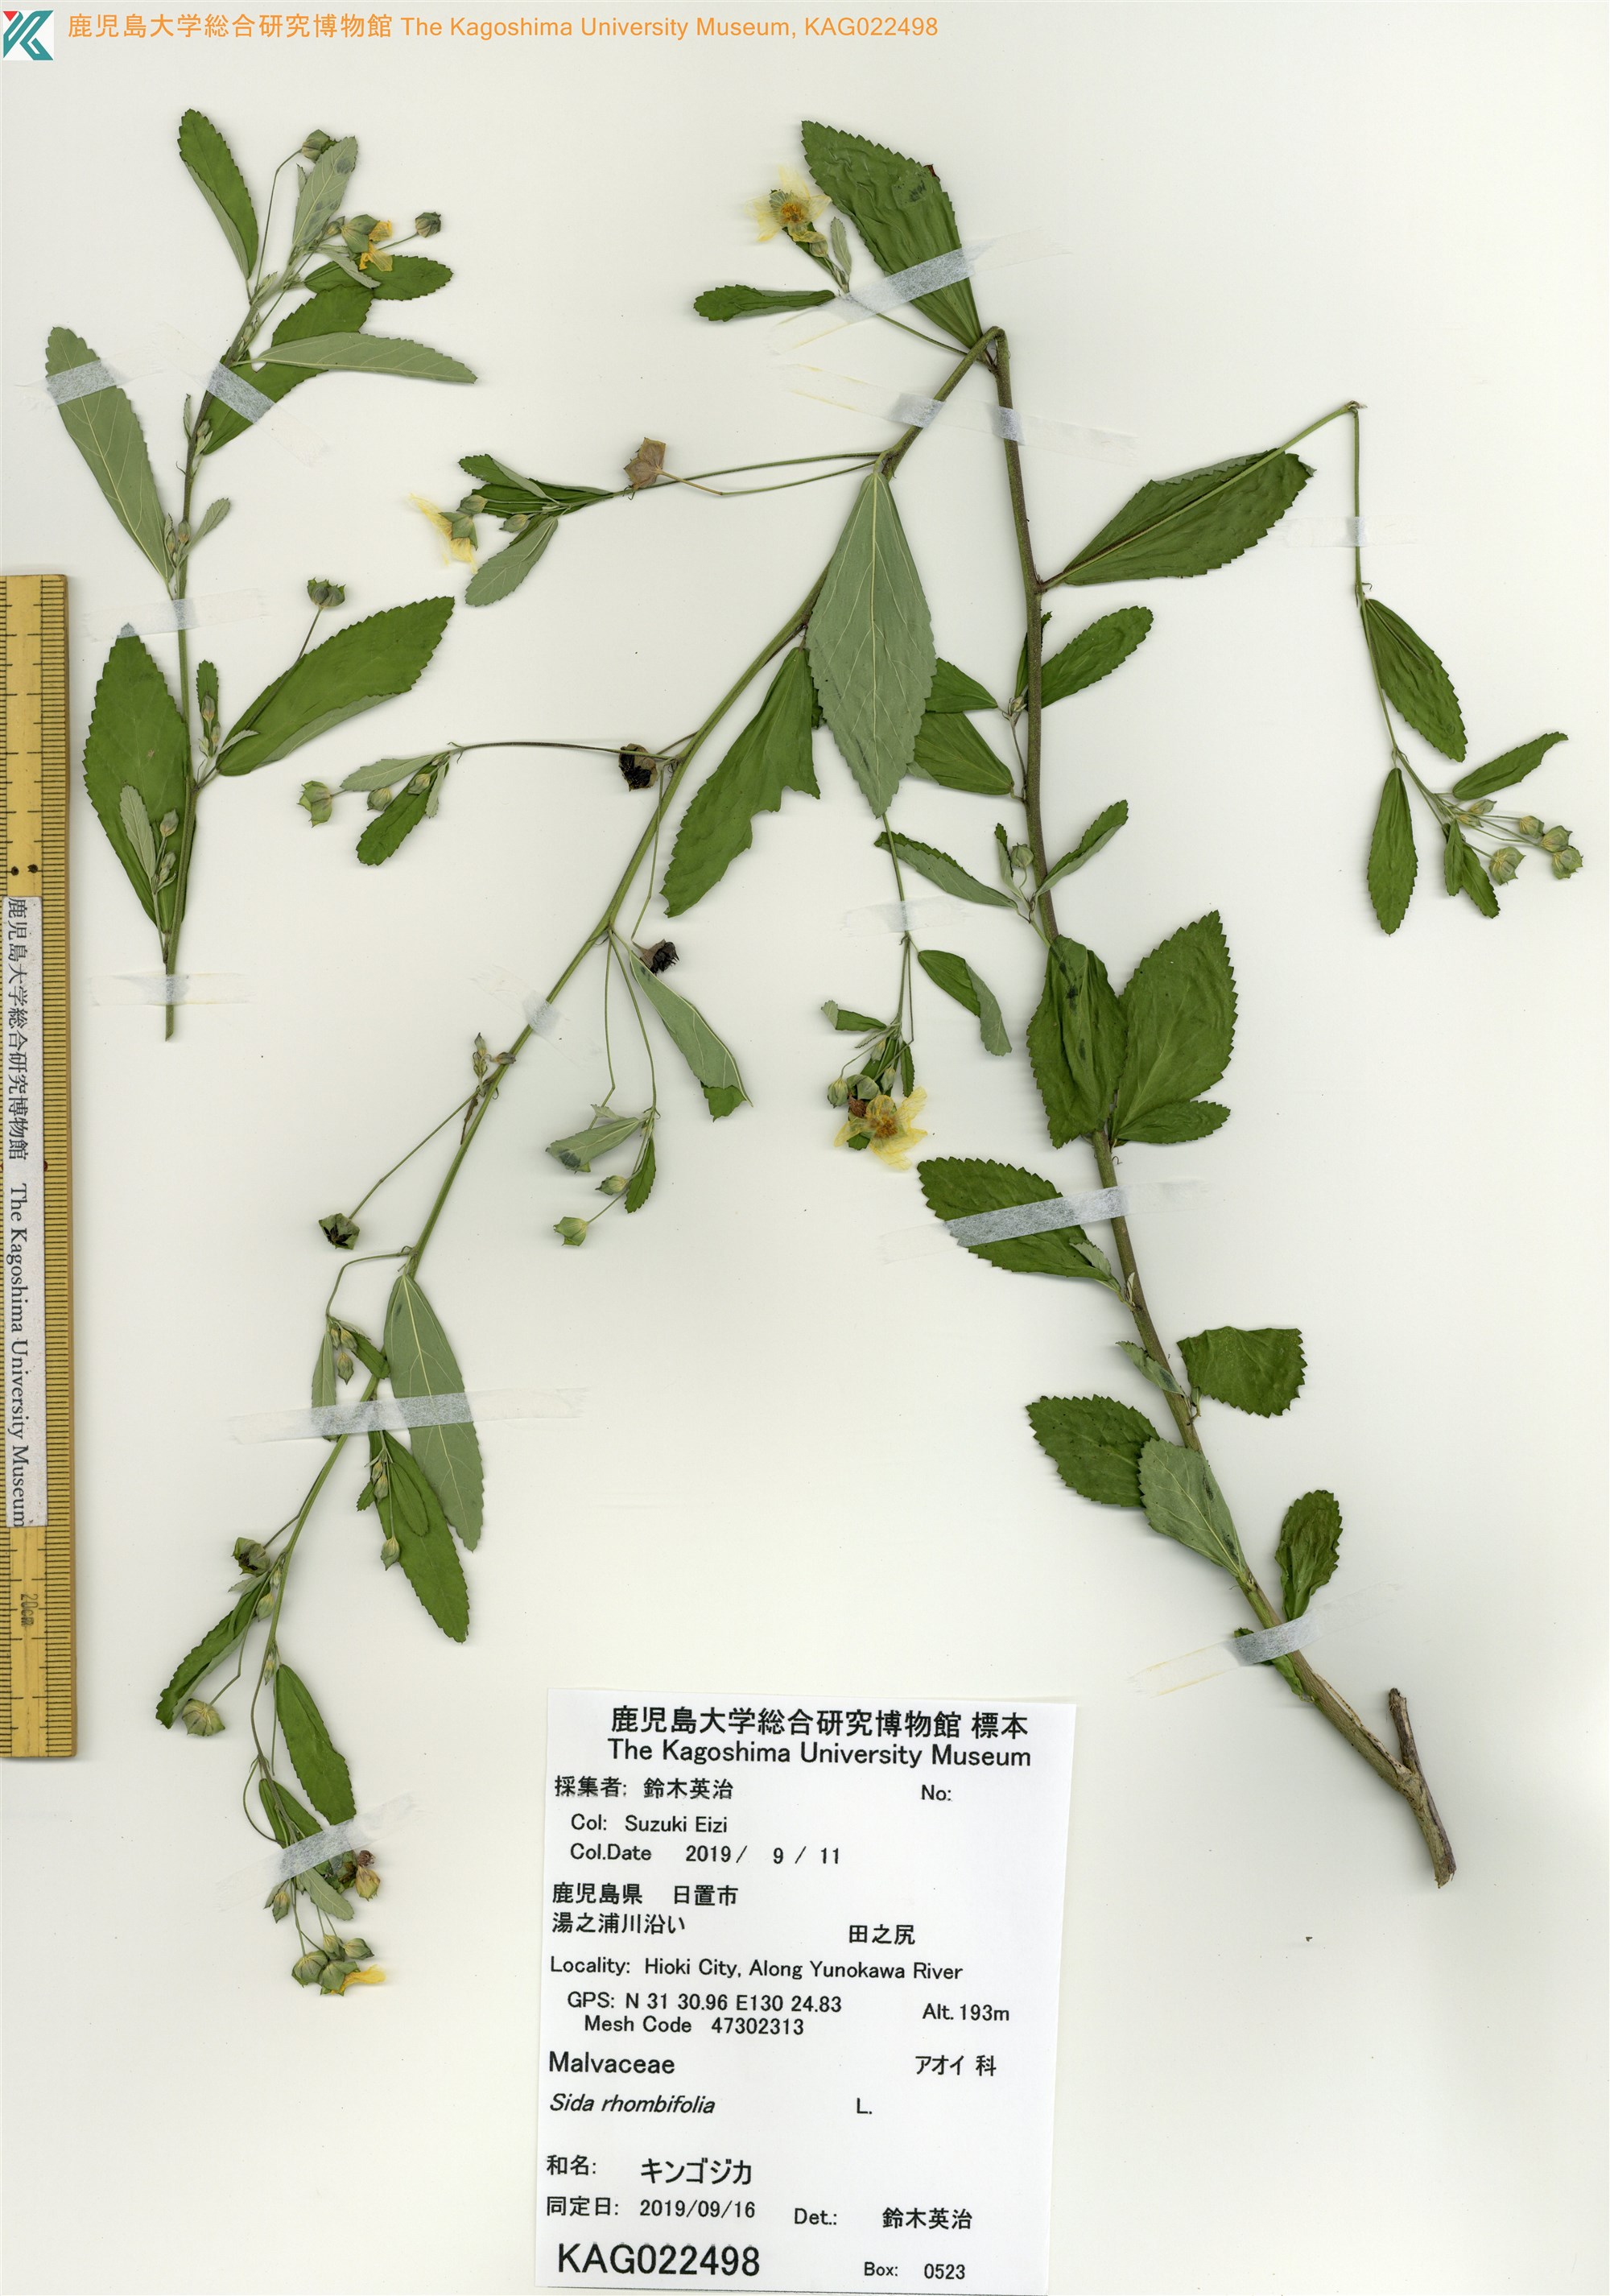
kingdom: Plantae
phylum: Tracheophyta
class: Magnoliopsida
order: Malvales
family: Malvaceae
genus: Sida
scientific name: Sida rhombifolia
